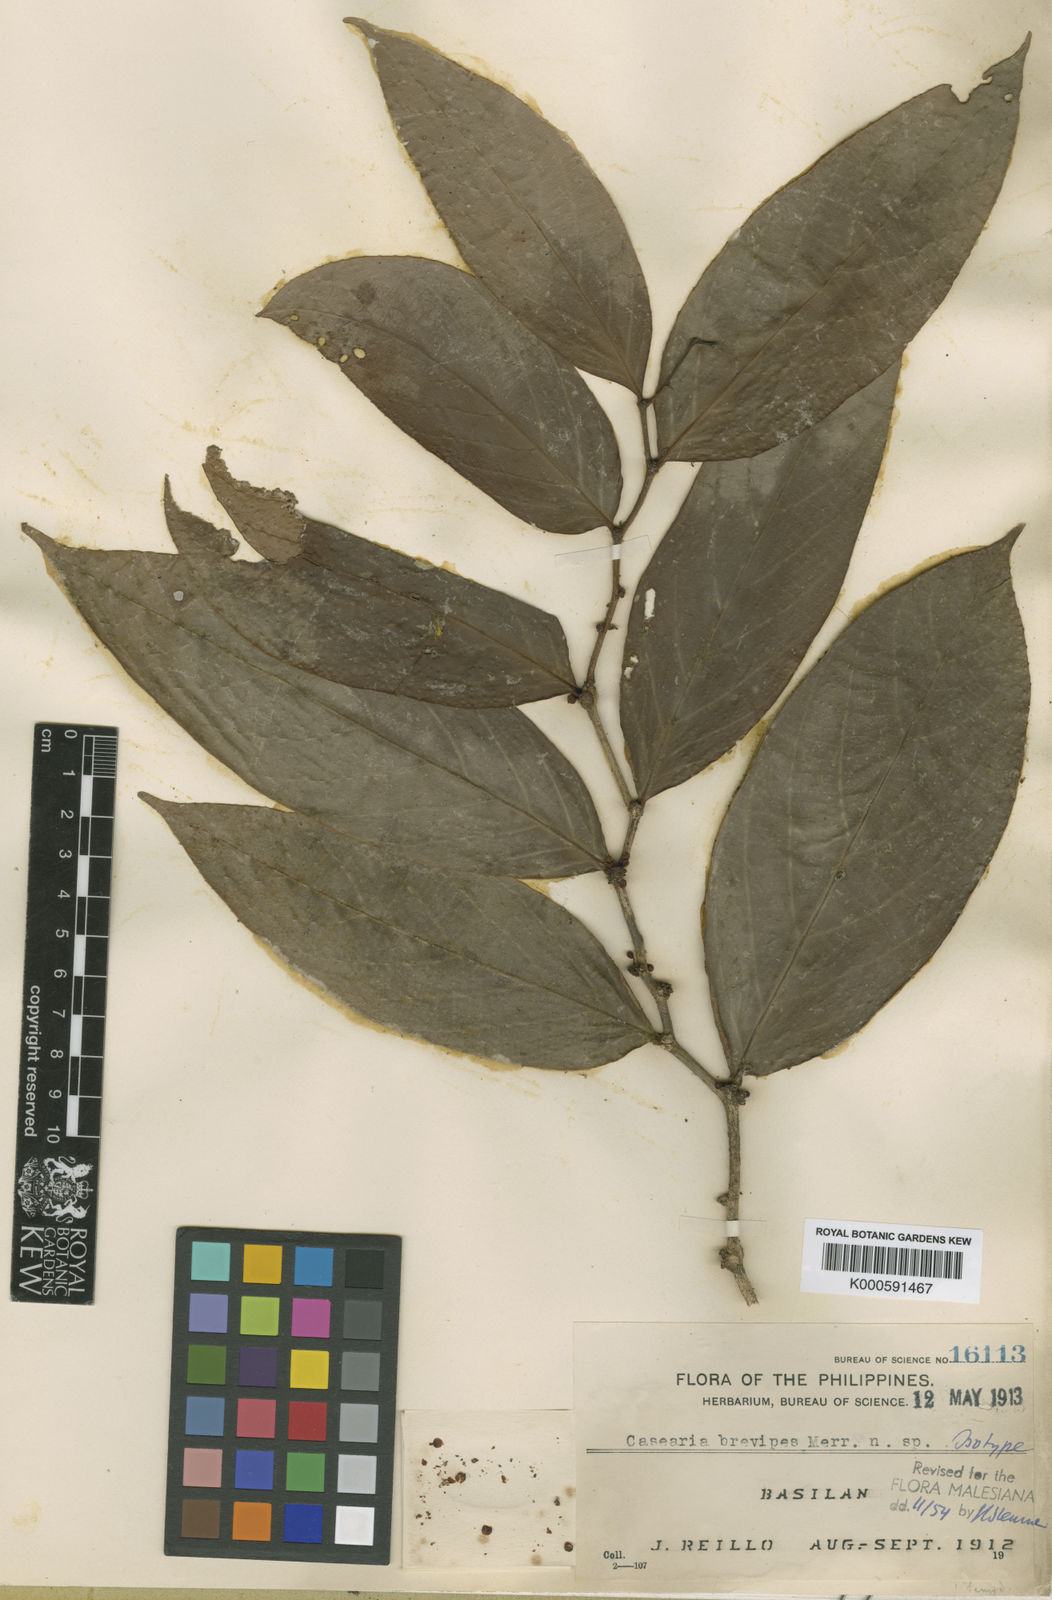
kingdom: Plantae
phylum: Tracheophyta
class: Magnoliopsida
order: Sapindales
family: Meliaceae
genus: Guarea
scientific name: Guarea guidonia
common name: American muskwood
